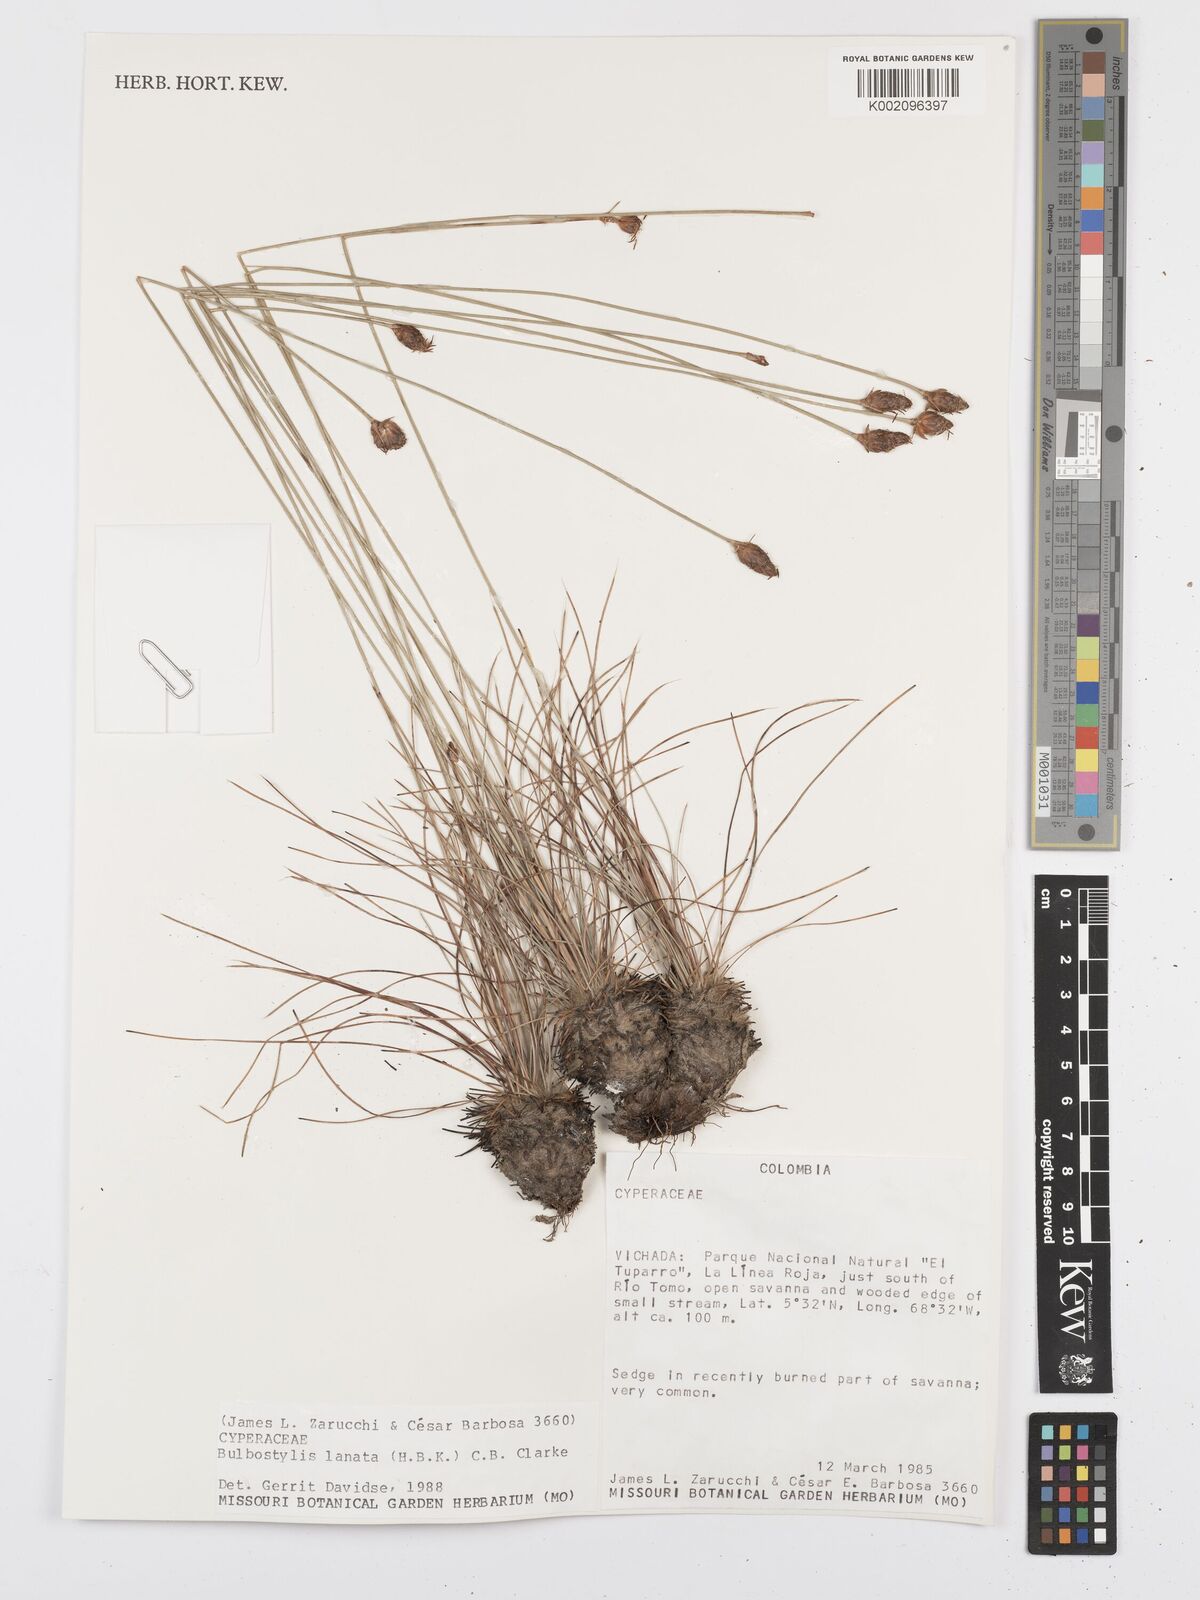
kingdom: Plantae
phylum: Tracheophyta
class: Liliopsida
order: Poales
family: Cyperaceae
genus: Bulbostylis
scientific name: Bulbostylis lanata
